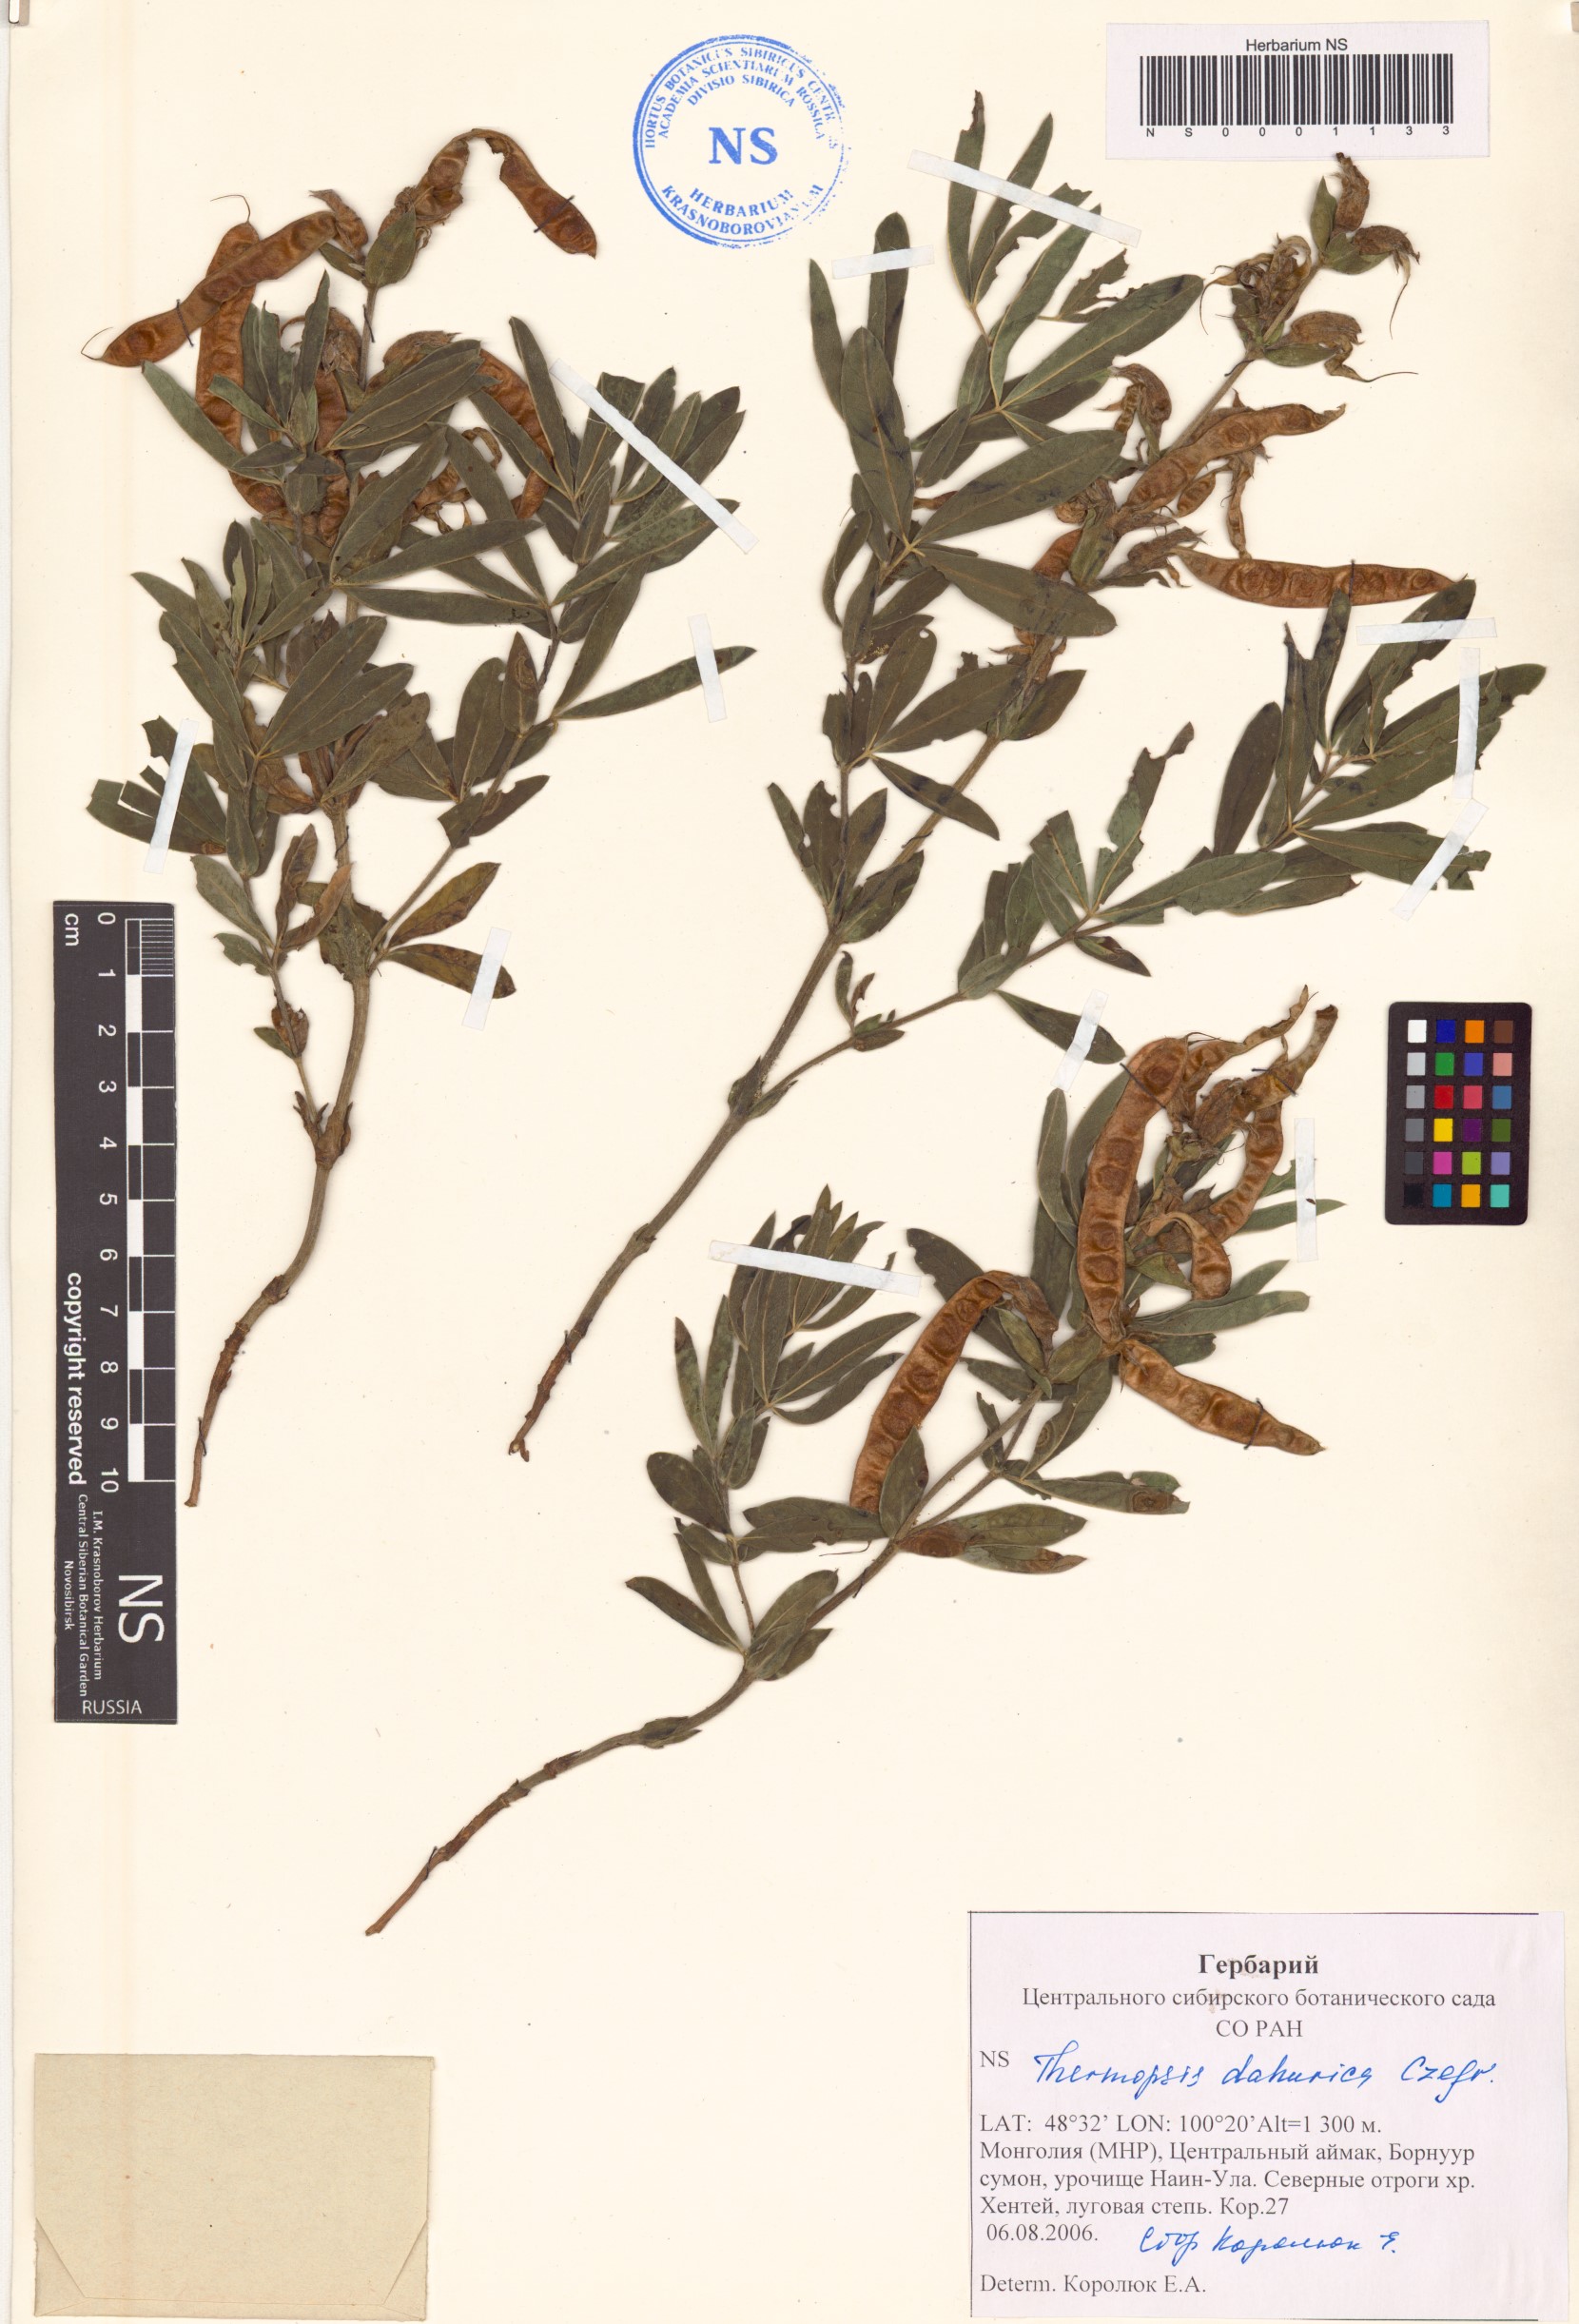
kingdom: Plantae
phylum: Tracheophyta
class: Magnoliopsida
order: Fabales
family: Fabaceae
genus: Thermopsis
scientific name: Thermopsis dahurica
